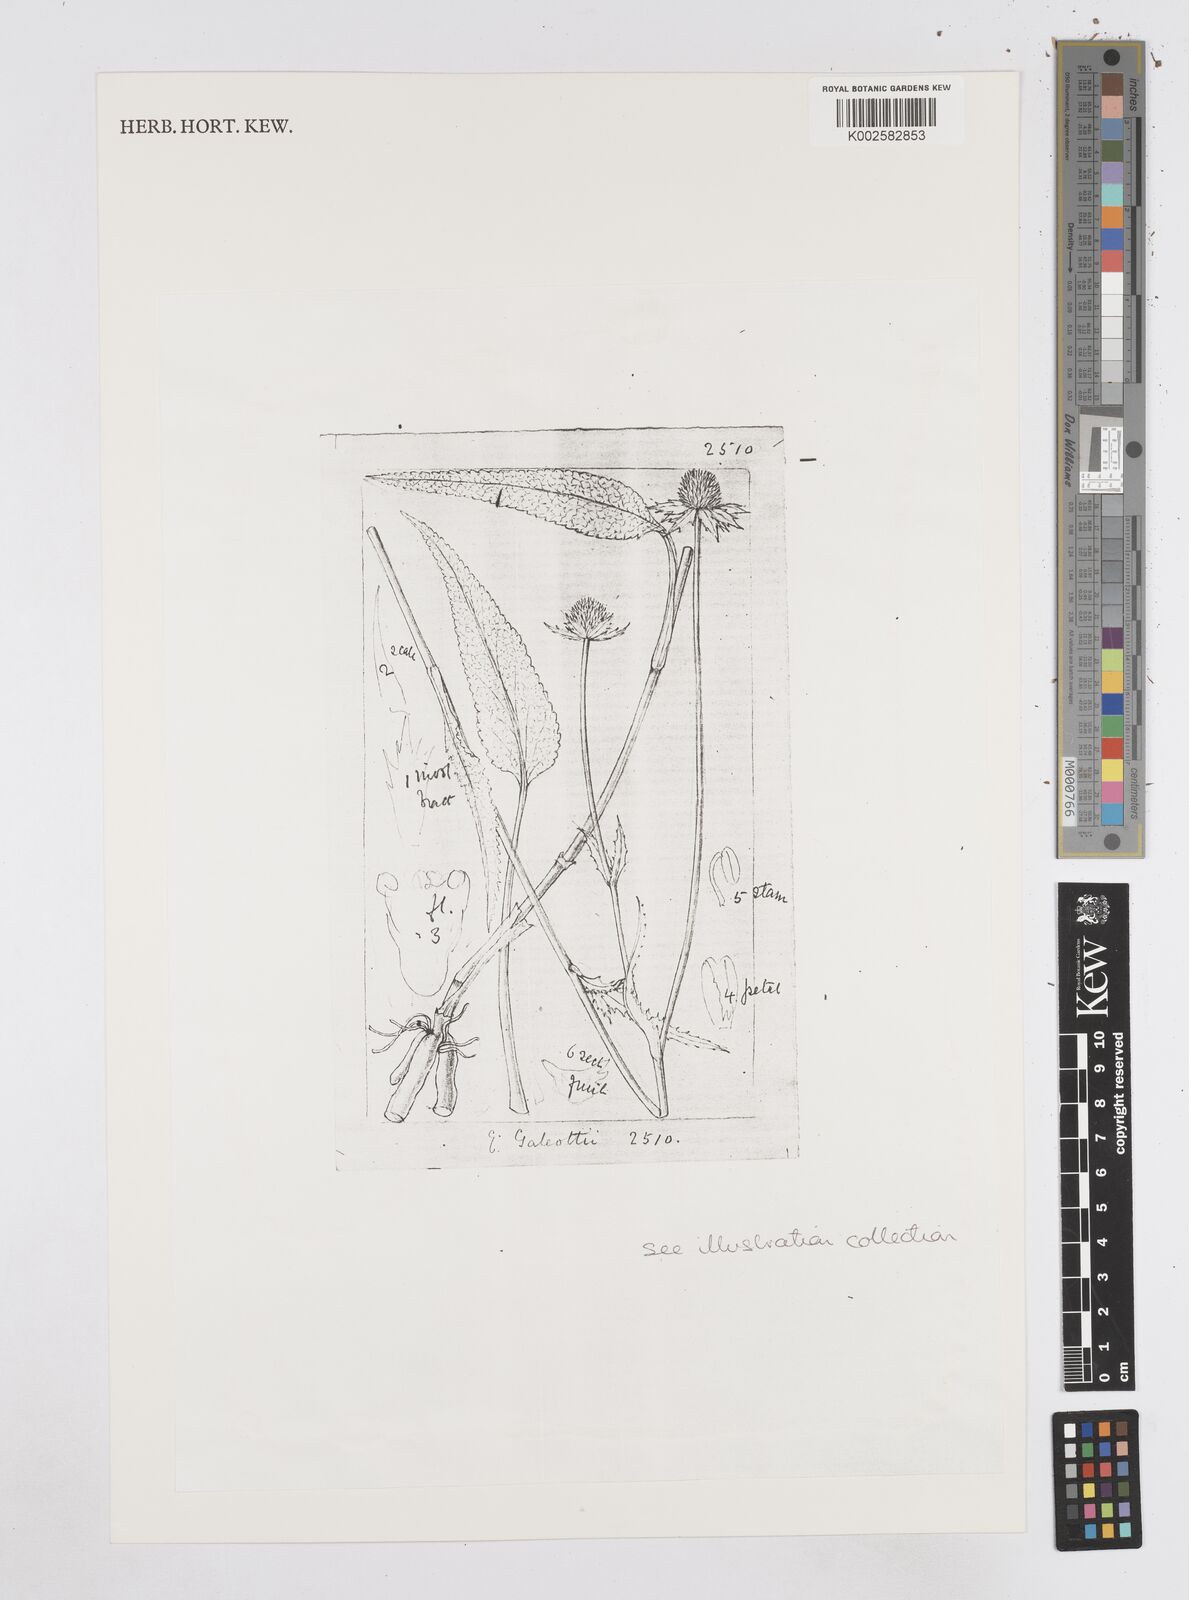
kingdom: Plantae
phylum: Tracheophyta
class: Magnoliopsida
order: Apiales
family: Apiaceae
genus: Eryngium
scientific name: Eryngium galeottii
